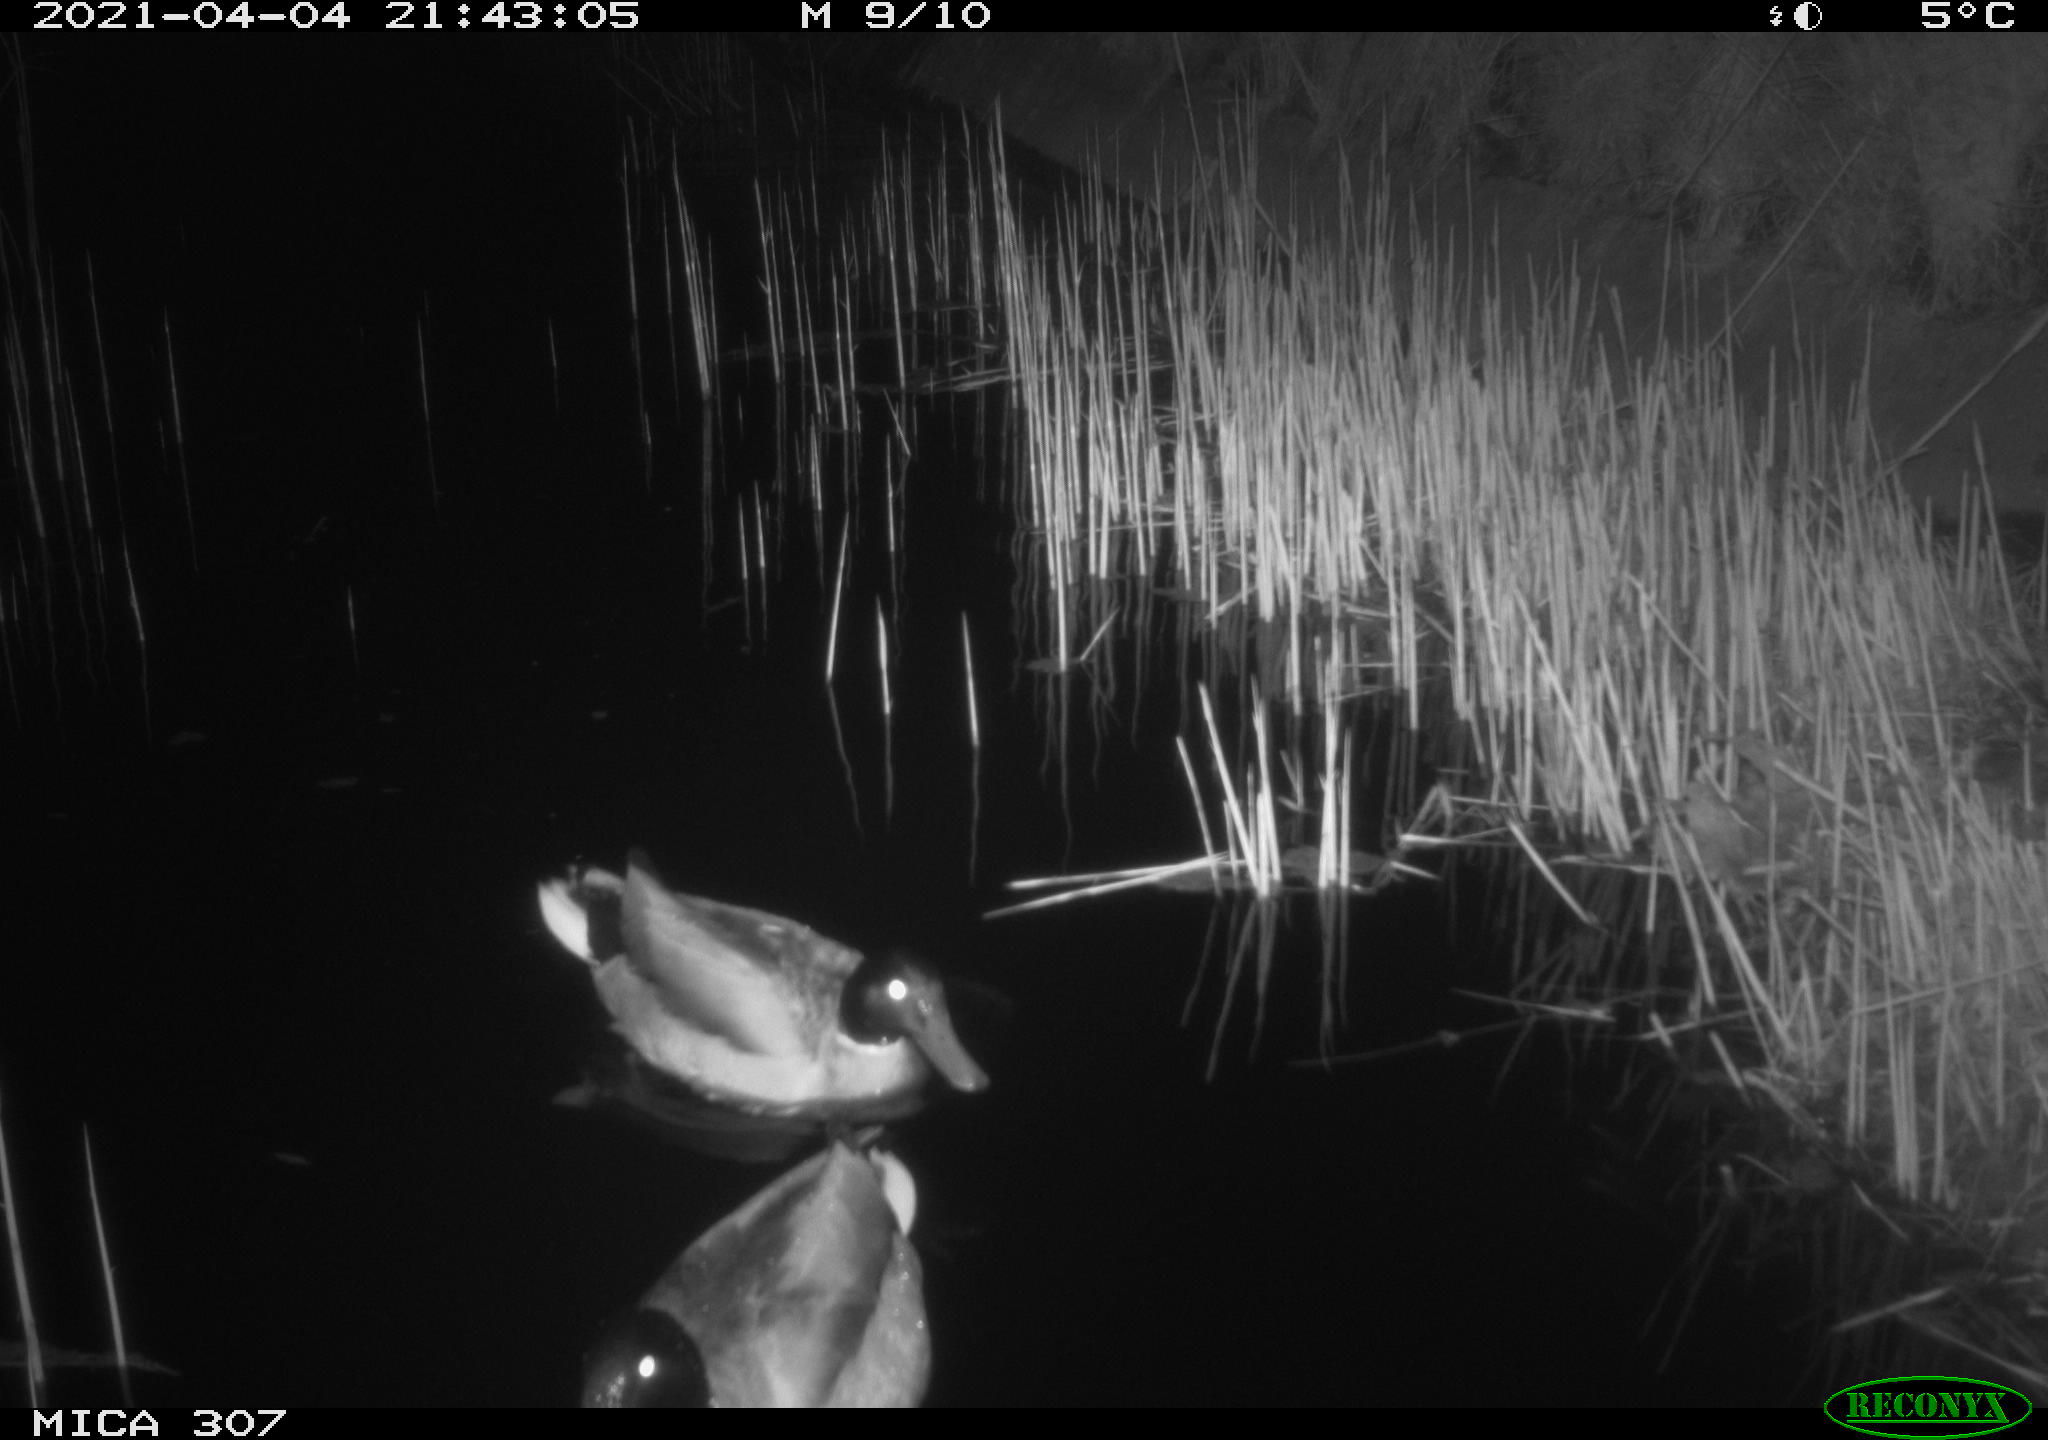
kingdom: Animalia
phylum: Chordata
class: Aves
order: Anseriformes
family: Anatidae
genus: Anas
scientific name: Anas platyrhynchos
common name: Mallard
